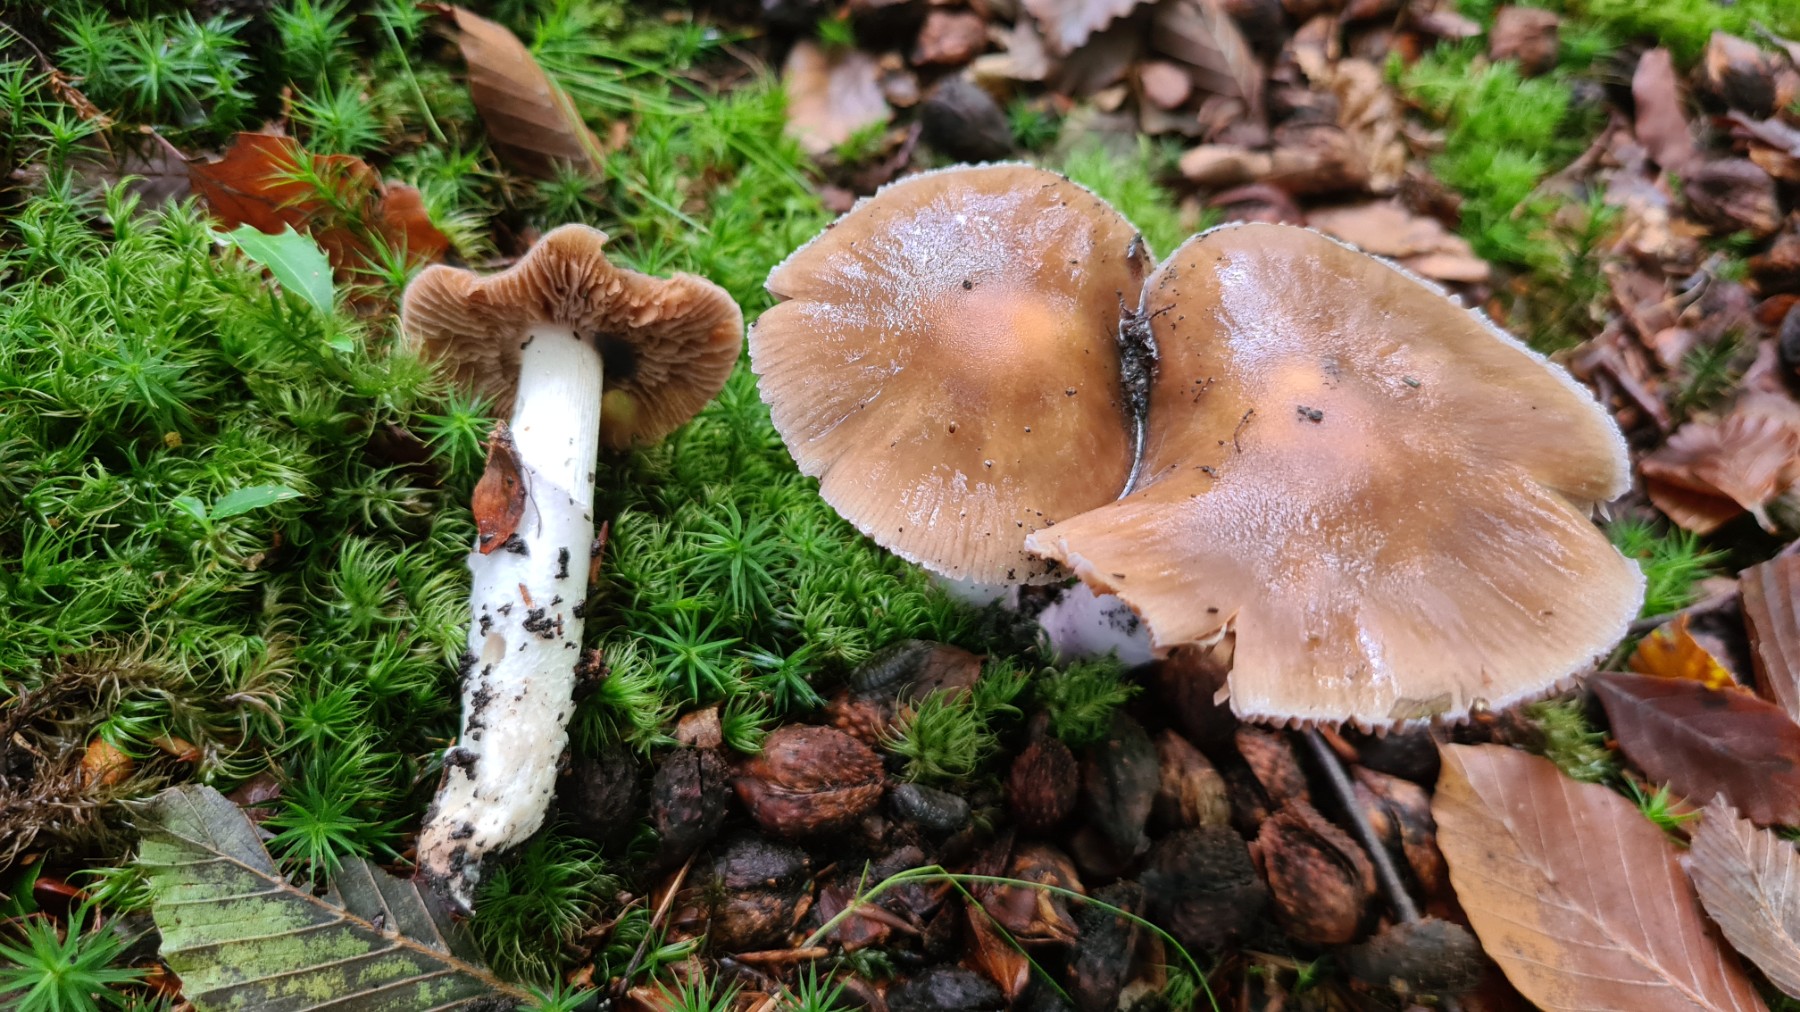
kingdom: Fungi
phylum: Basidiomycota
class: Agaricomycetes
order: Agaricales
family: Cortinariaceae
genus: Cortinarius
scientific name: Cortinarius elatior
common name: høj slørhat
